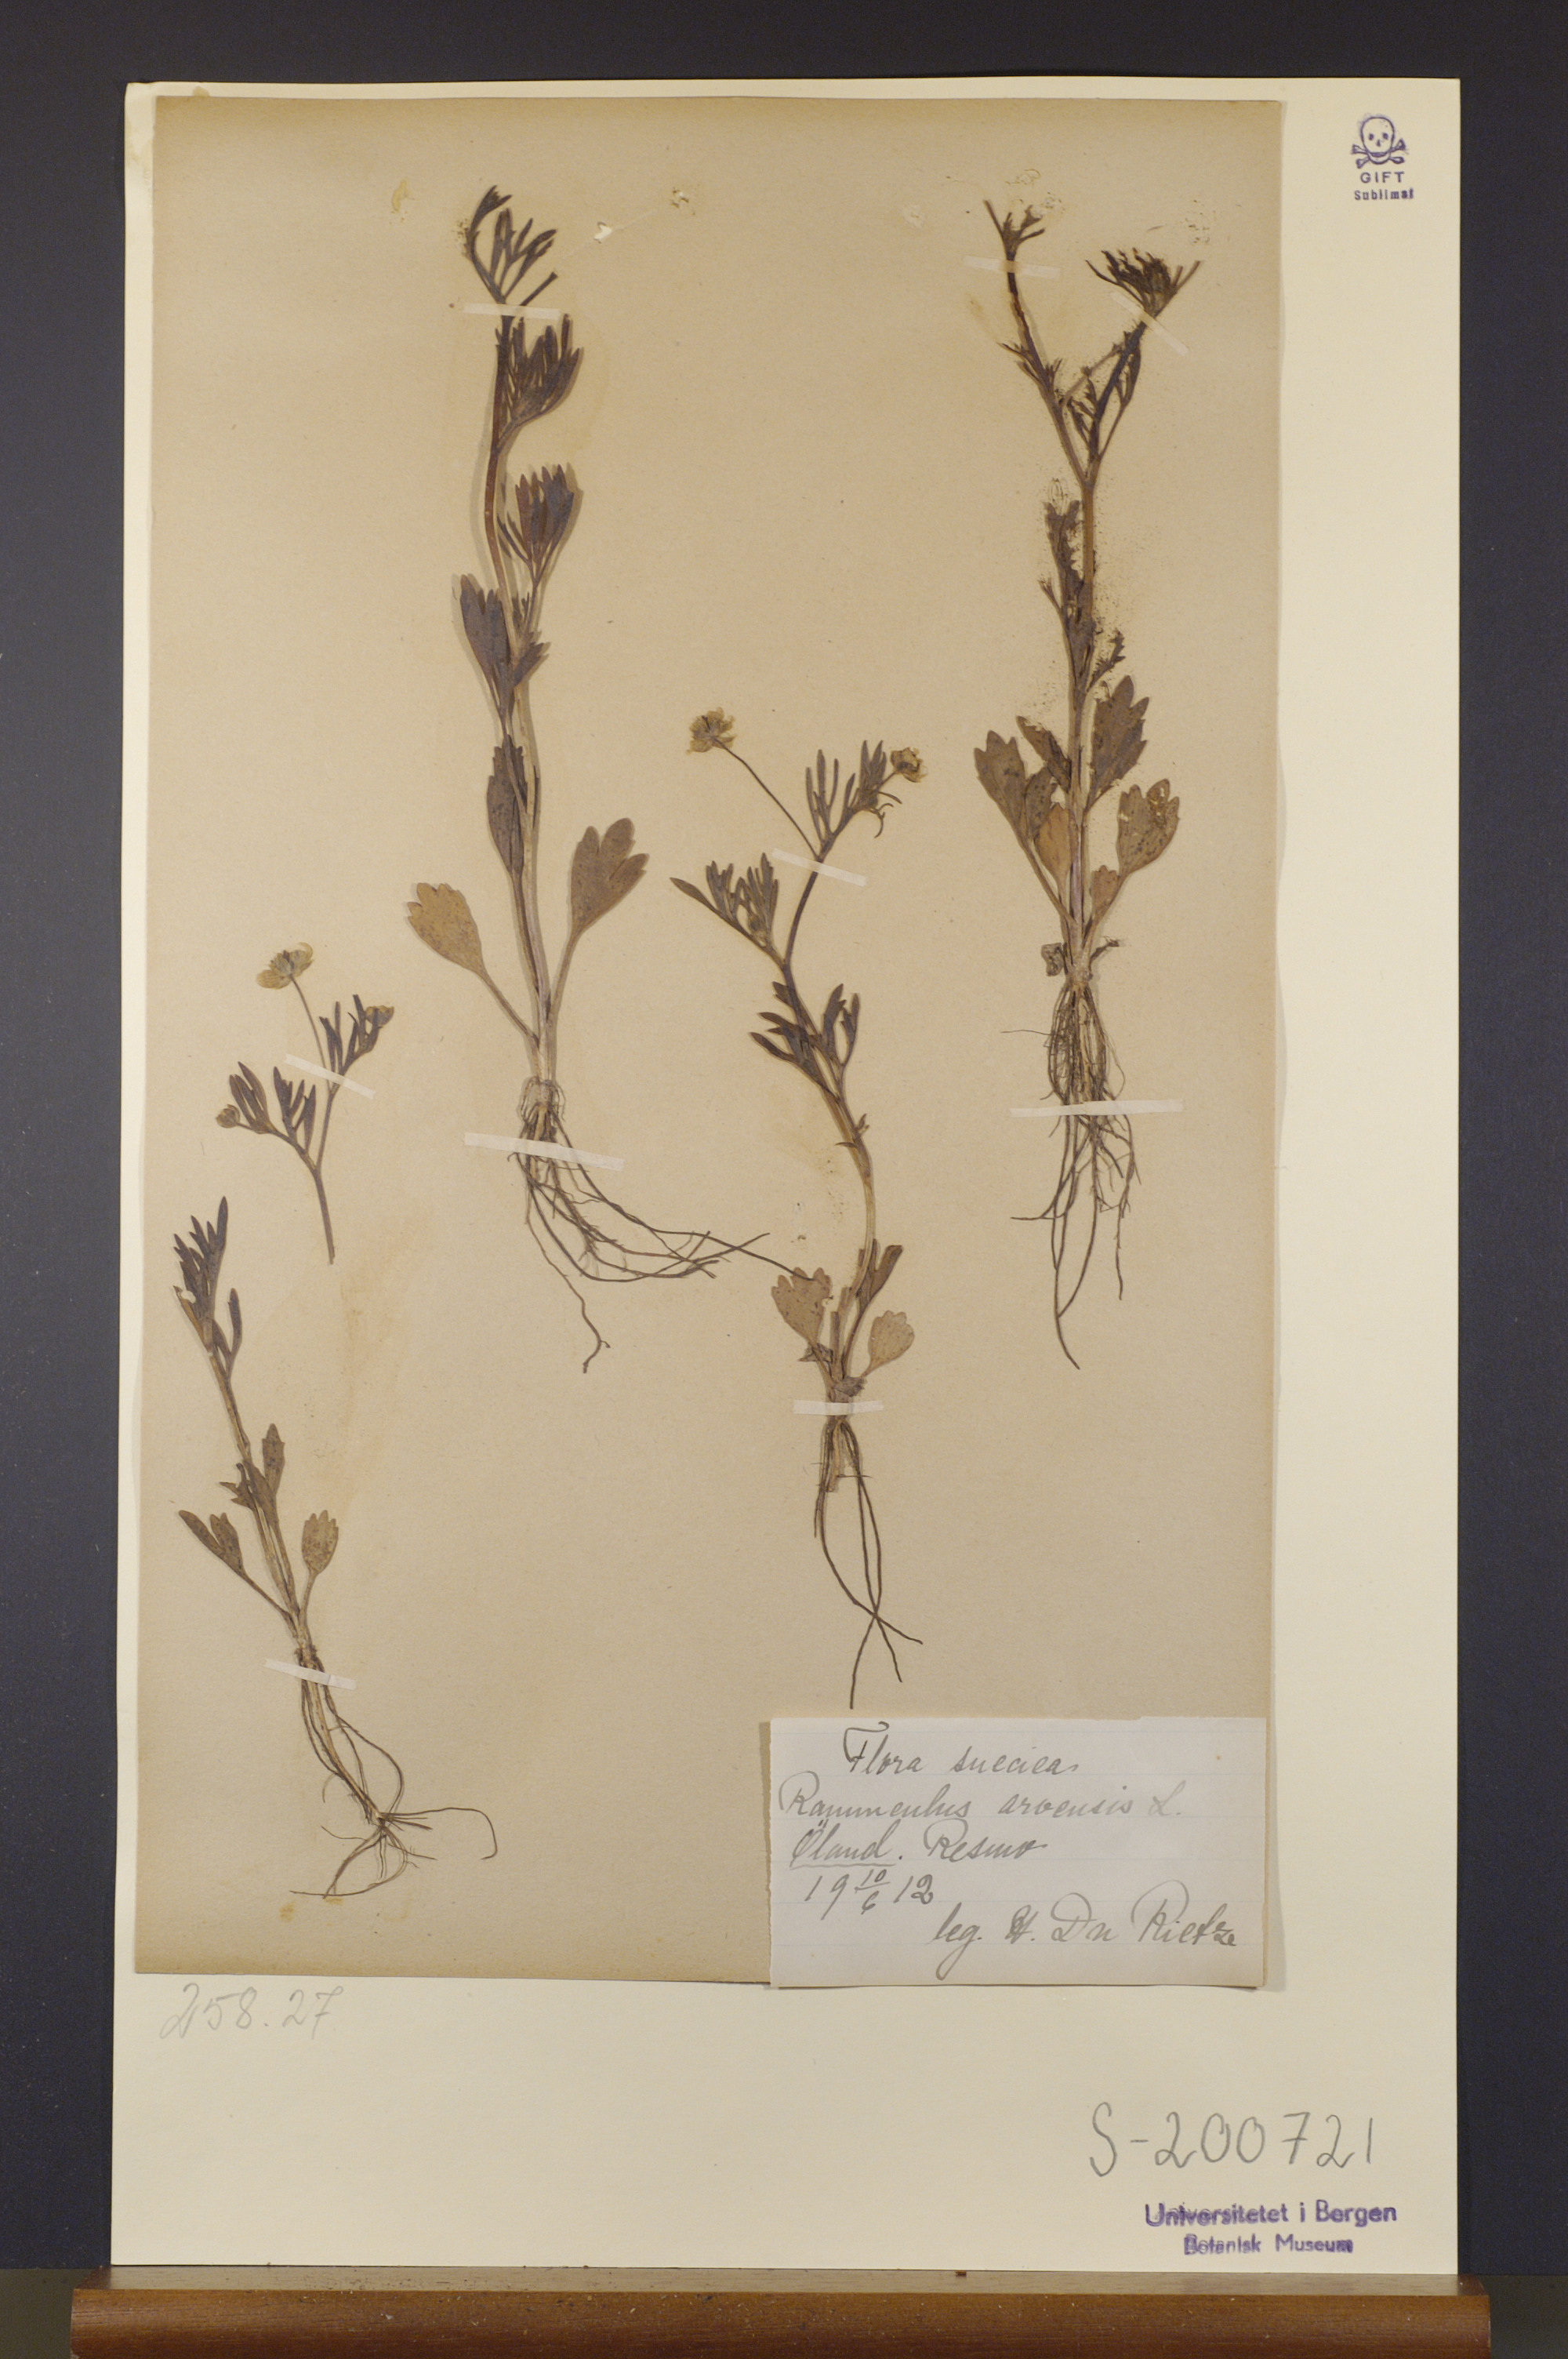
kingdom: Plantae
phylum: Tracheophyta
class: Magnoliopsida
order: Ranunculales
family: Ranunculaceae
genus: Ranunculus
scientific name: Ranunculus arvensis
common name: Corn buttercup
